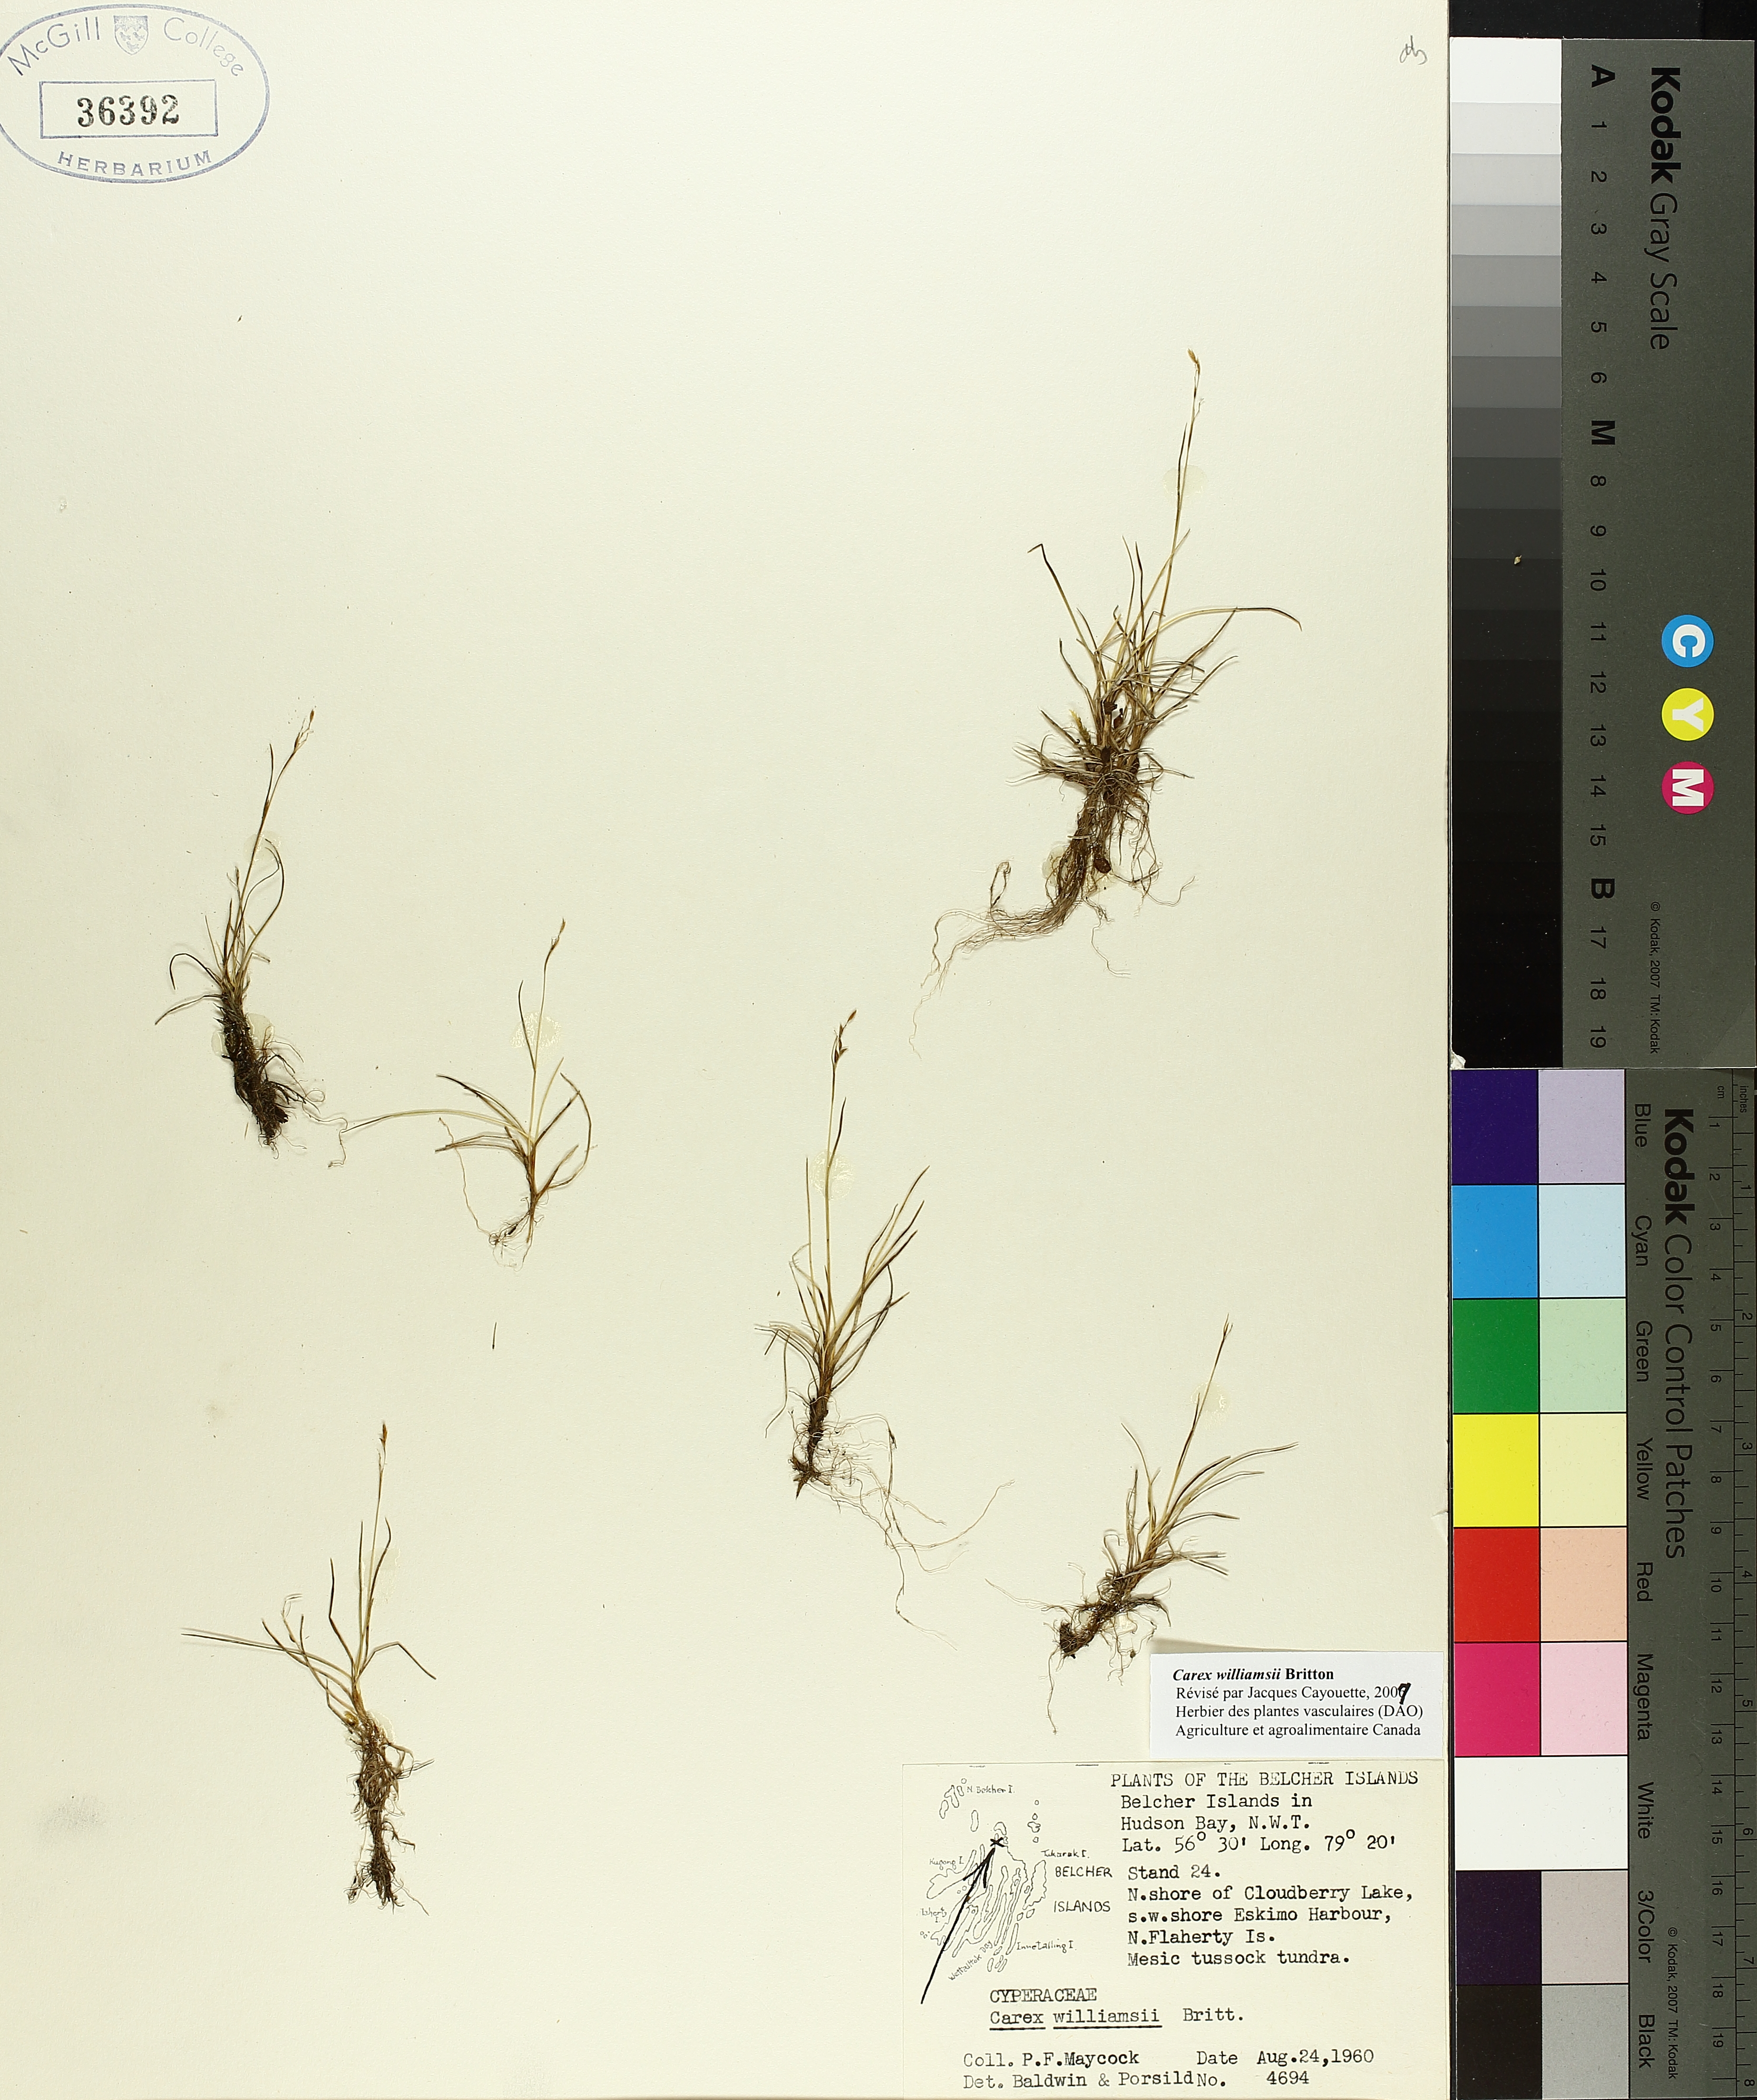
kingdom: Plantae
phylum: Tracheophyta
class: Liliopsida
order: Poales
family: Cyperaceae
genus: Carex
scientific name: Carex williamsii
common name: Williams' sedge
